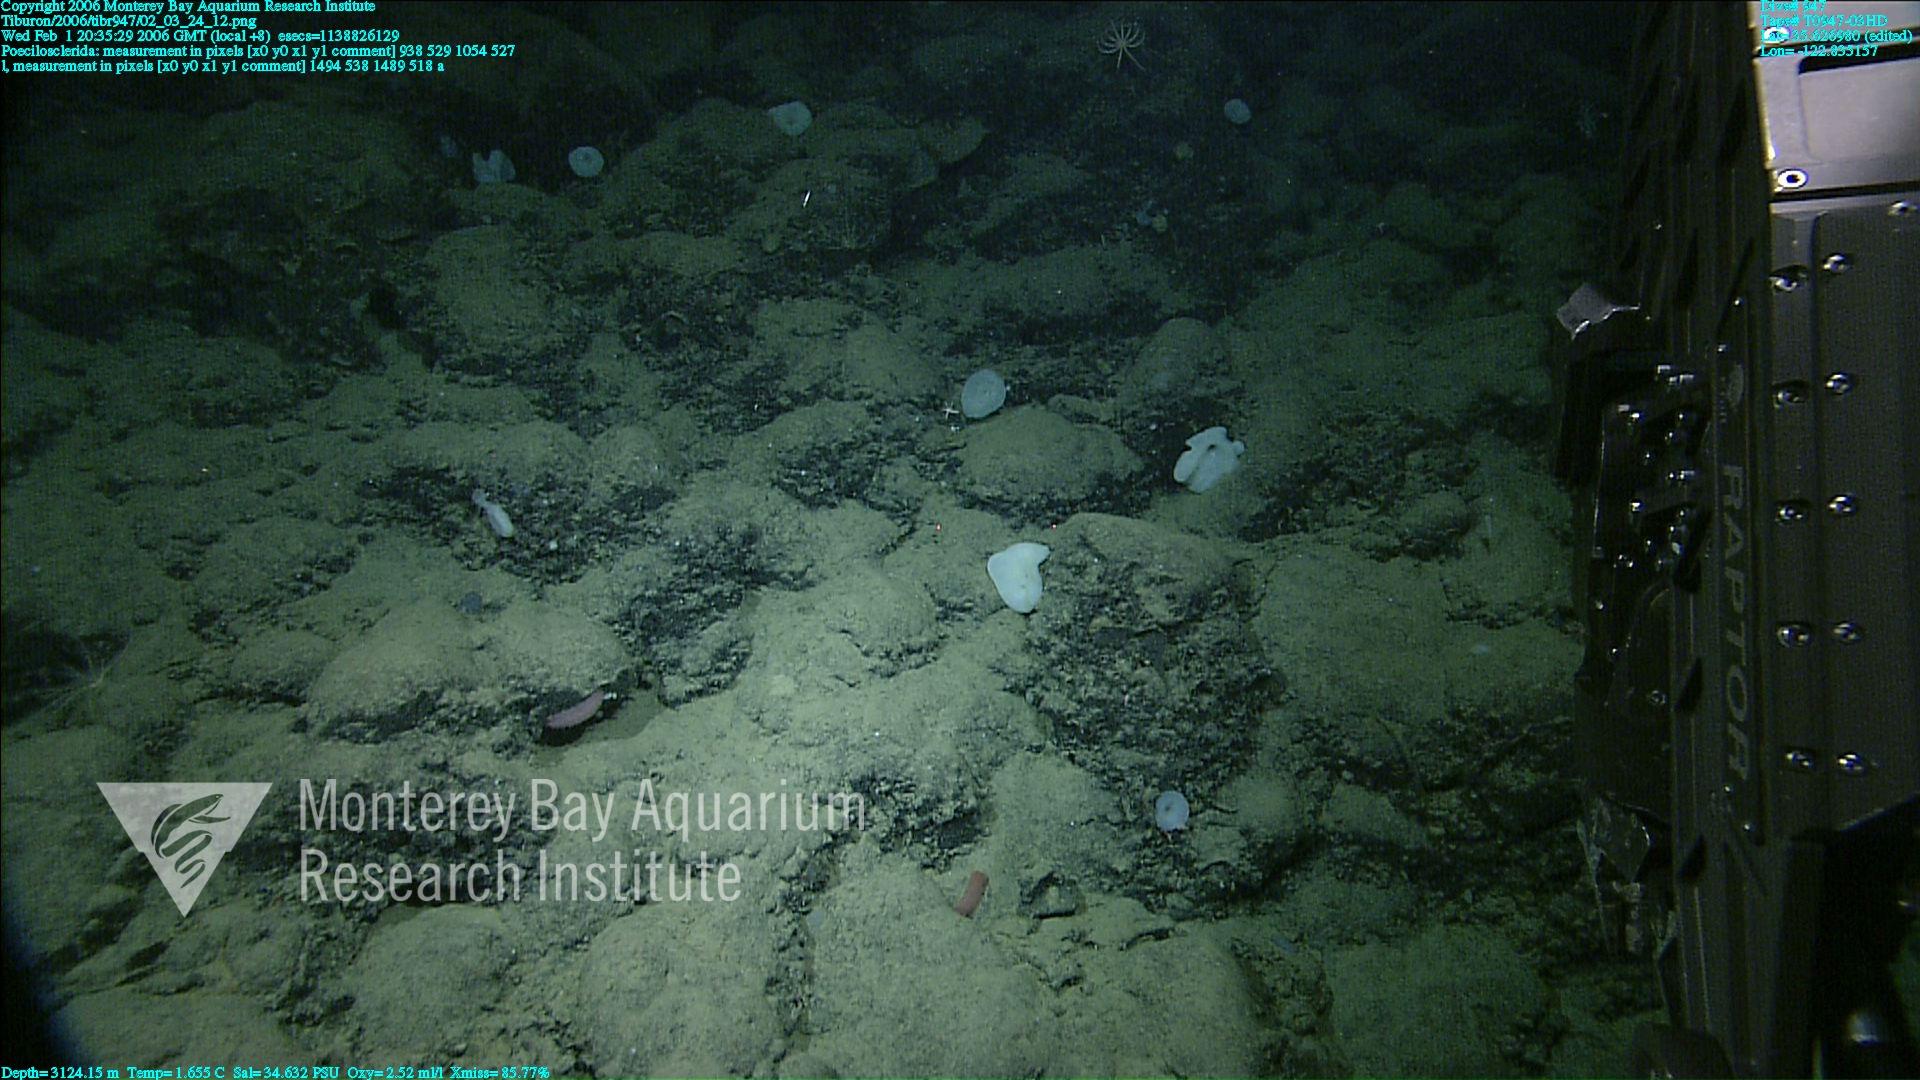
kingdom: Animalia
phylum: Porifera
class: Demospongiae
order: Poecilosclerida
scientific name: Poecilosclerida
